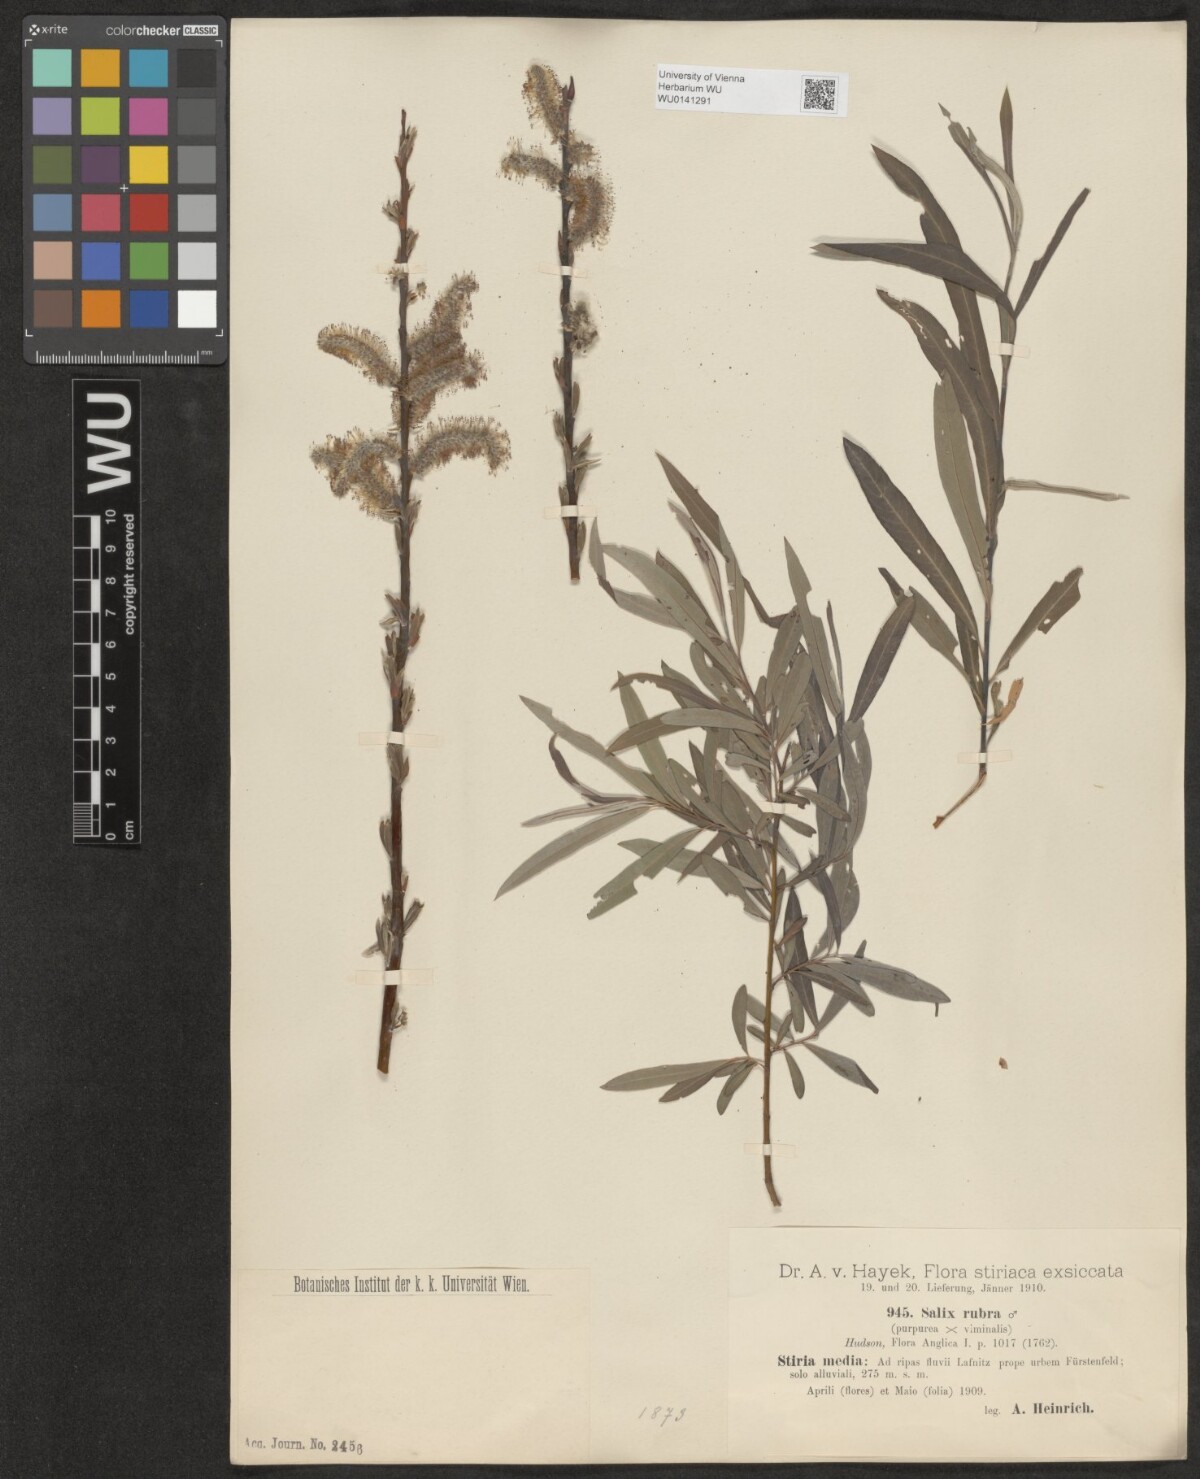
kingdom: Plantae
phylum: Tracheophyta
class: Magnoliopsida
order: Malpighiales
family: Salicaceae
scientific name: Salicaceae
